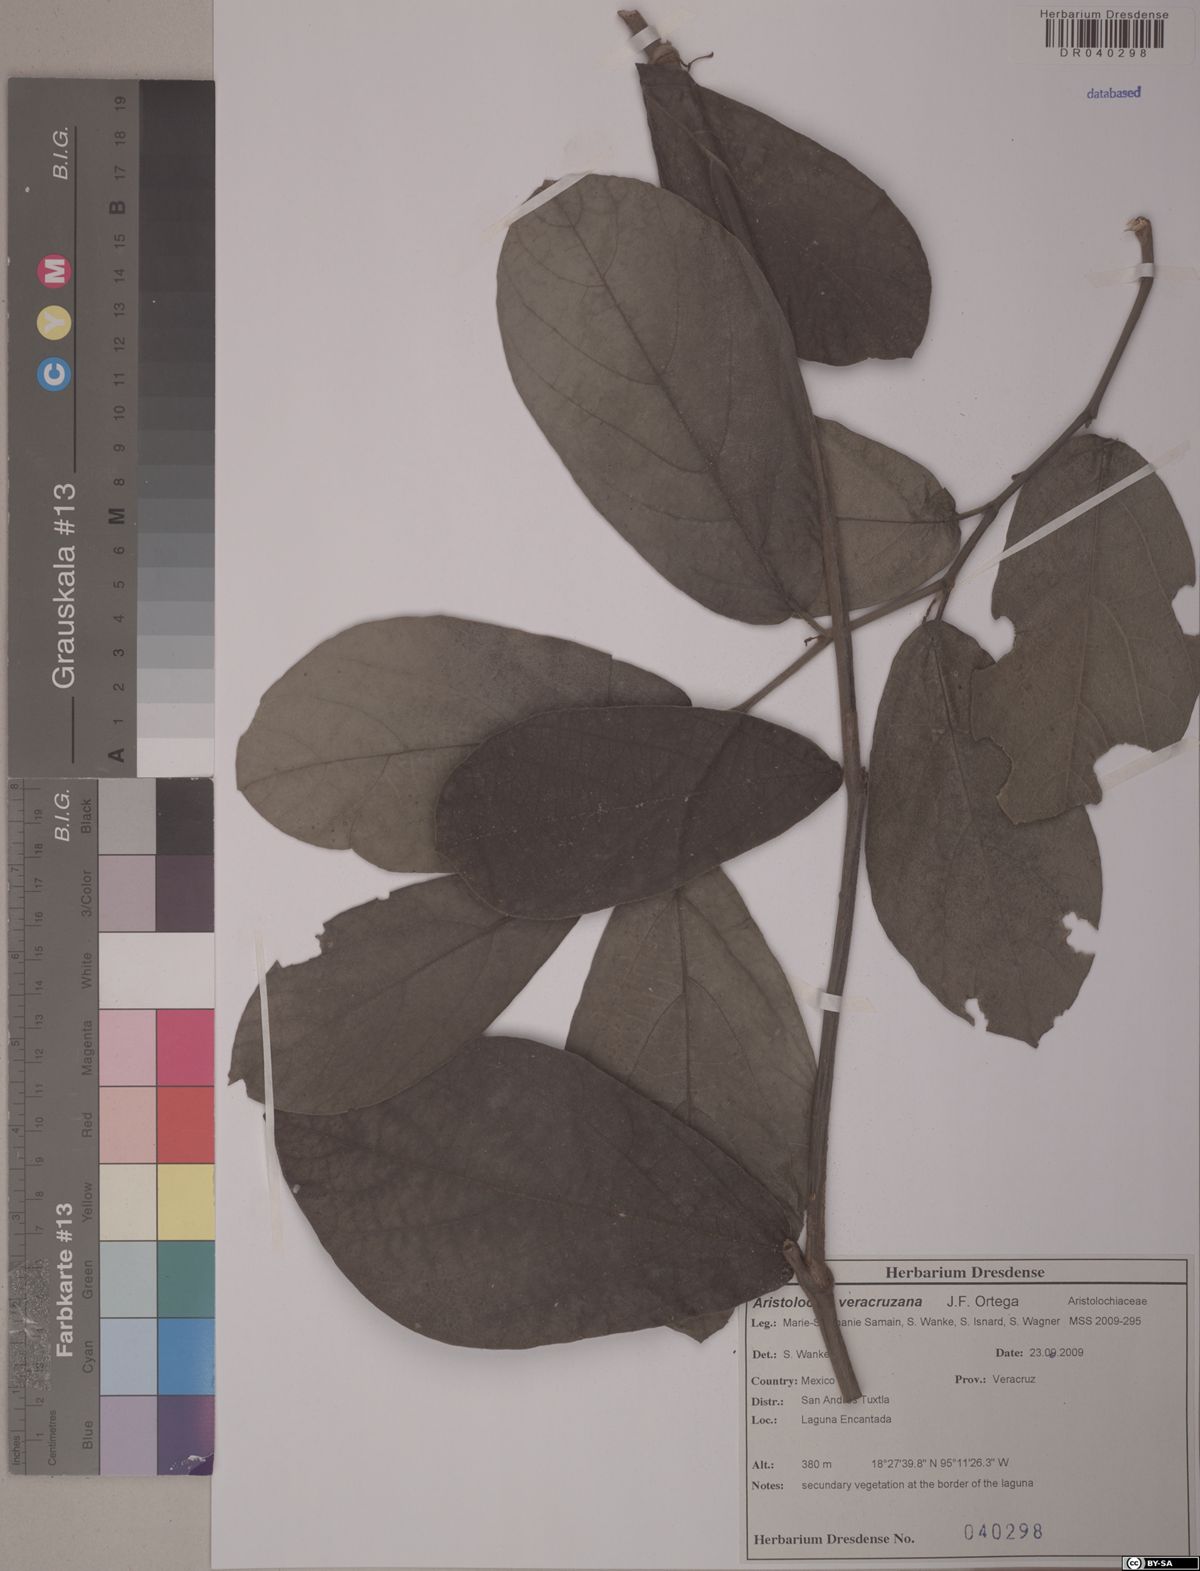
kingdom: Plantae
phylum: Tracheophyta
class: Magnoliopsida
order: Piperales
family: Aristolochiaceae
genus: Isotrema
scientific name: Isotrema veracruzanum
